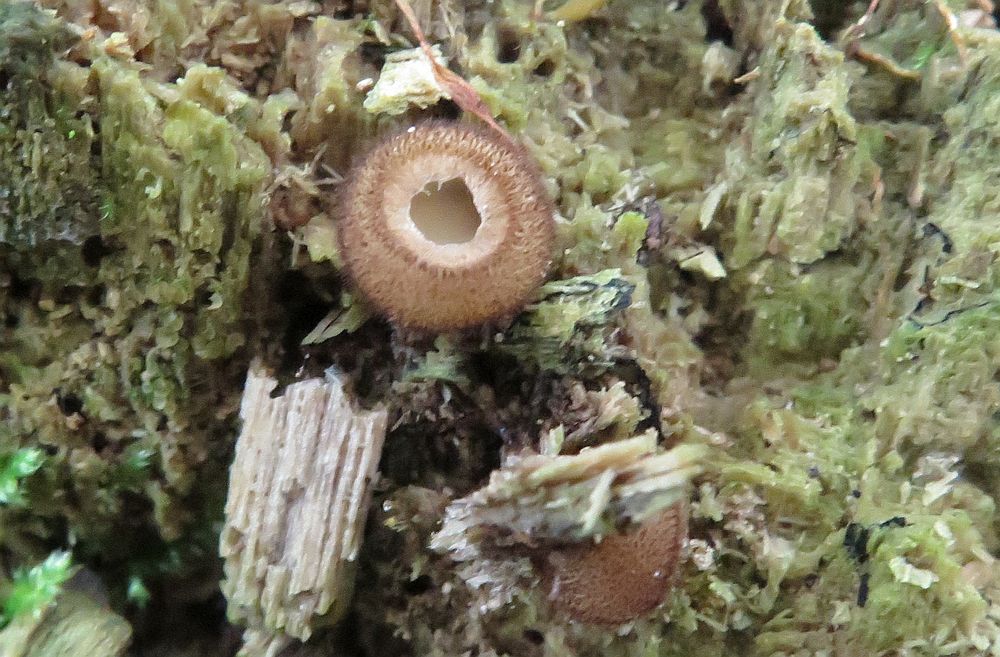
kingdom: Fungi
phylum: Ascomycota
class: Pezizomycetes
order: Pezizales
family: Pyronemataceae
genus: Humaria
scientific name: Humaria hemisphaerica
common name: halvkugleformet børstebæger
